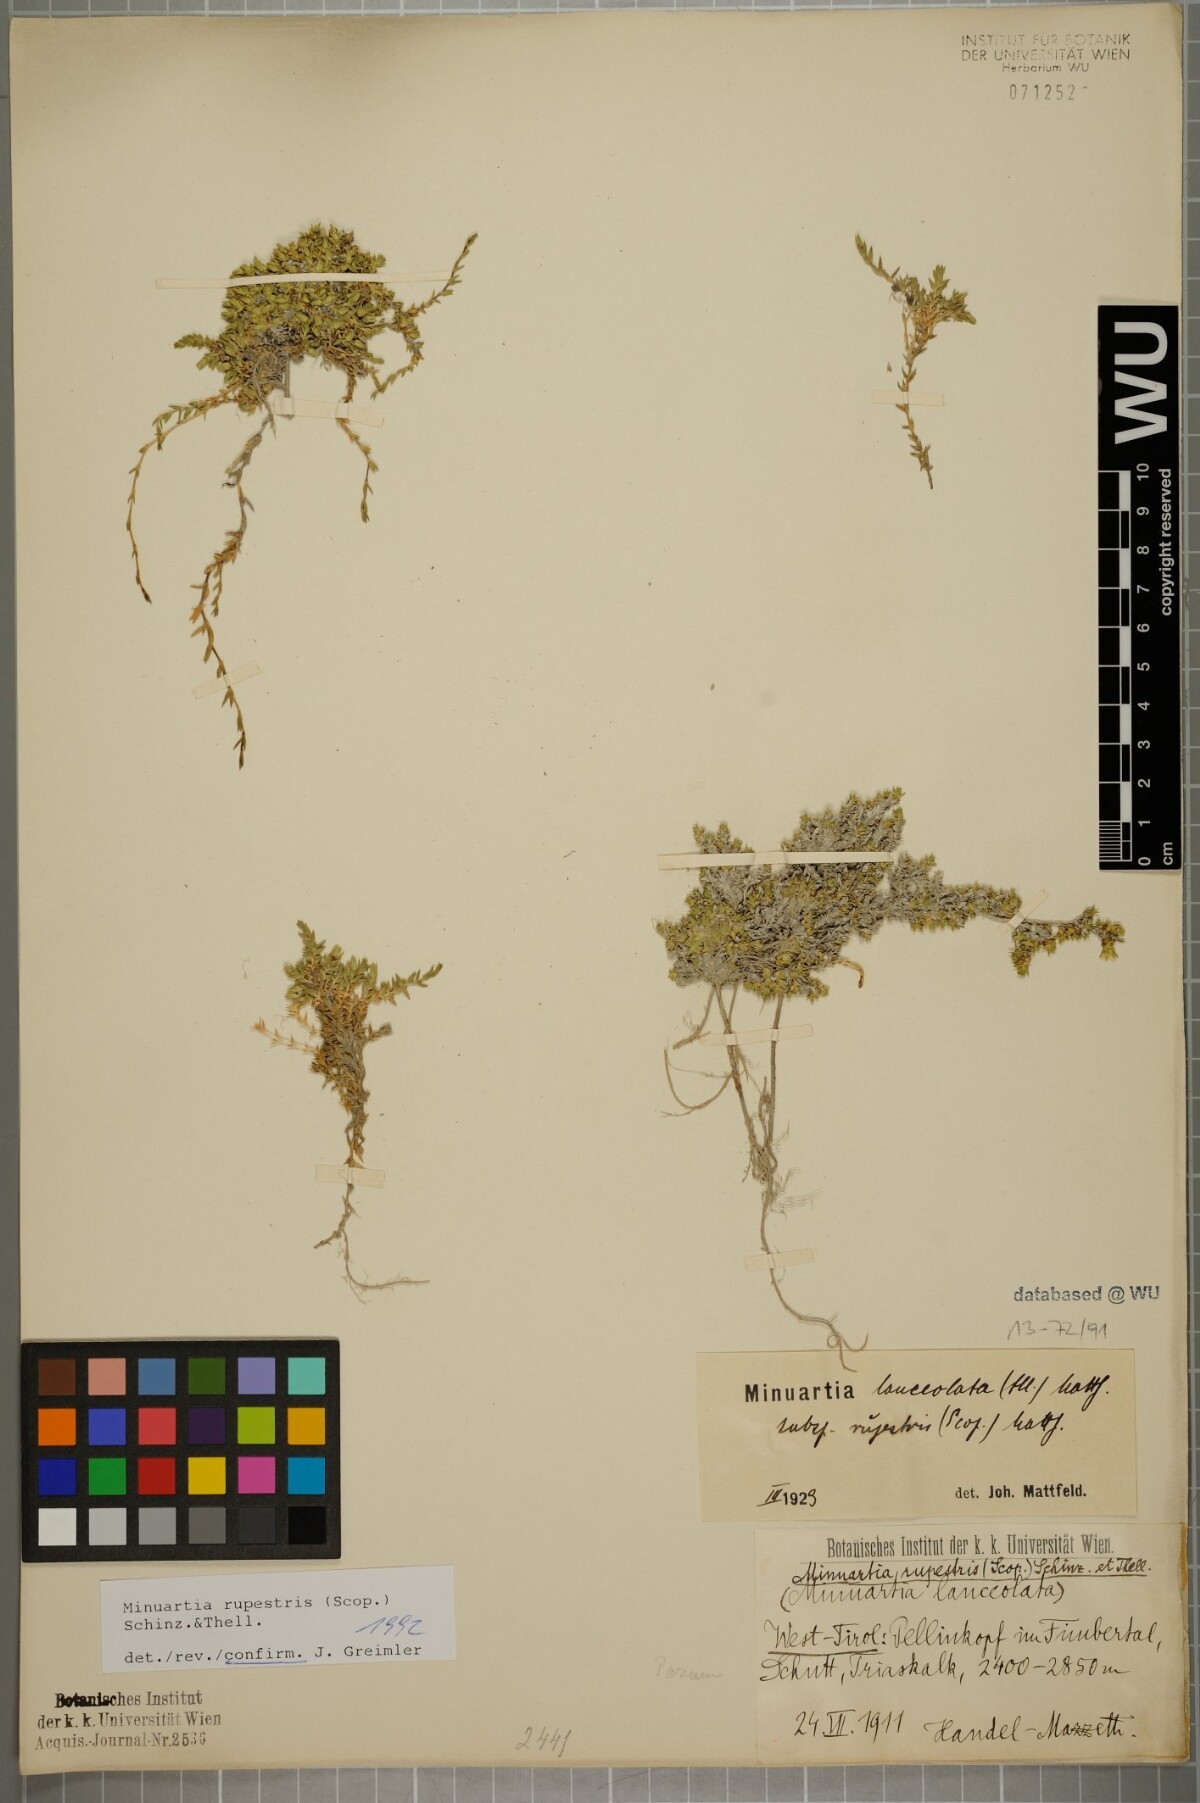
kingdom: Plantae
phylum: Tracheophyta
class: Magnoliopsida
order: Caryophyllales
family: Caryophyllaceae
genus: Facchinia
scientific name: Facchinia rupestris
